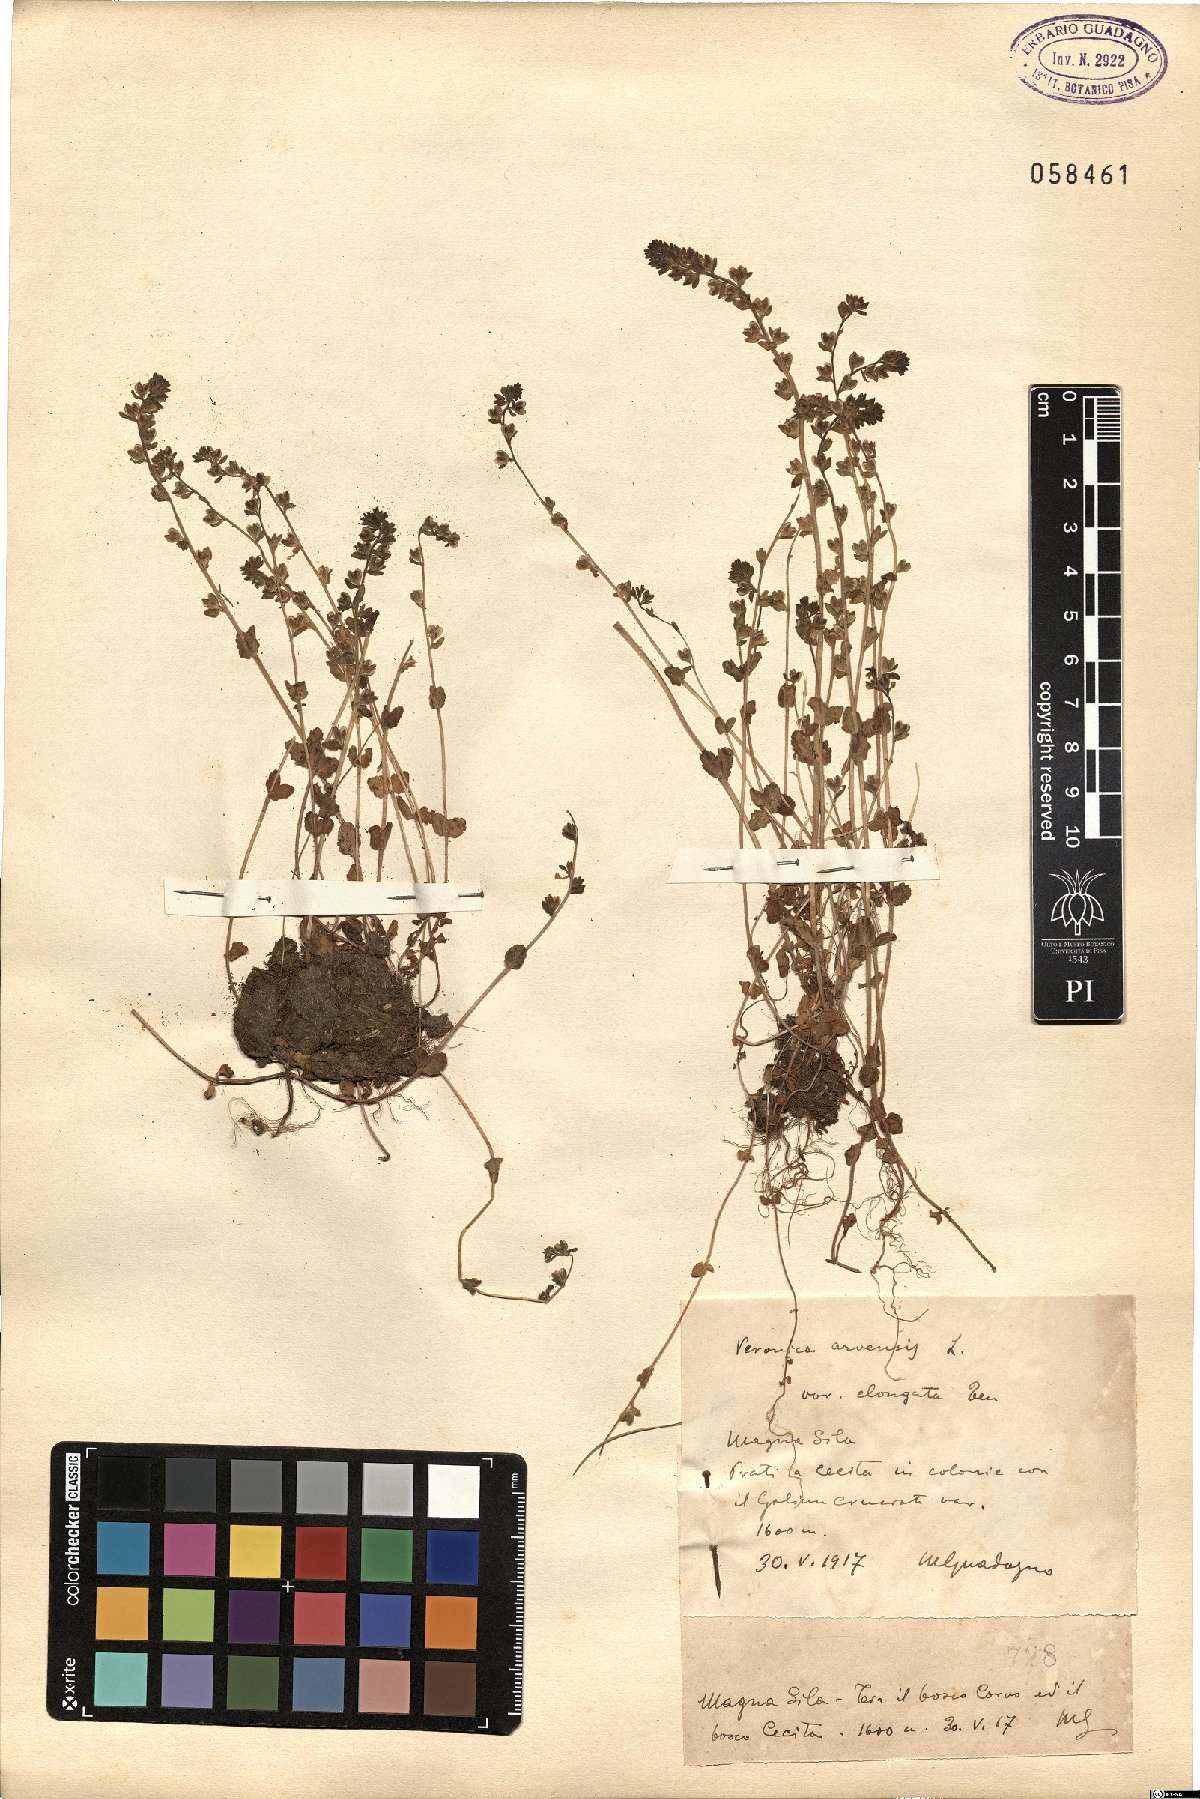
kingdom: Plantae
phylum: Tracheophyta
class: Magnoliopsida
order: Lamiales
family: Plantaginaceae
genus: Veronica
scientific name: Veronica arvensis
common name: Corn speedwell
